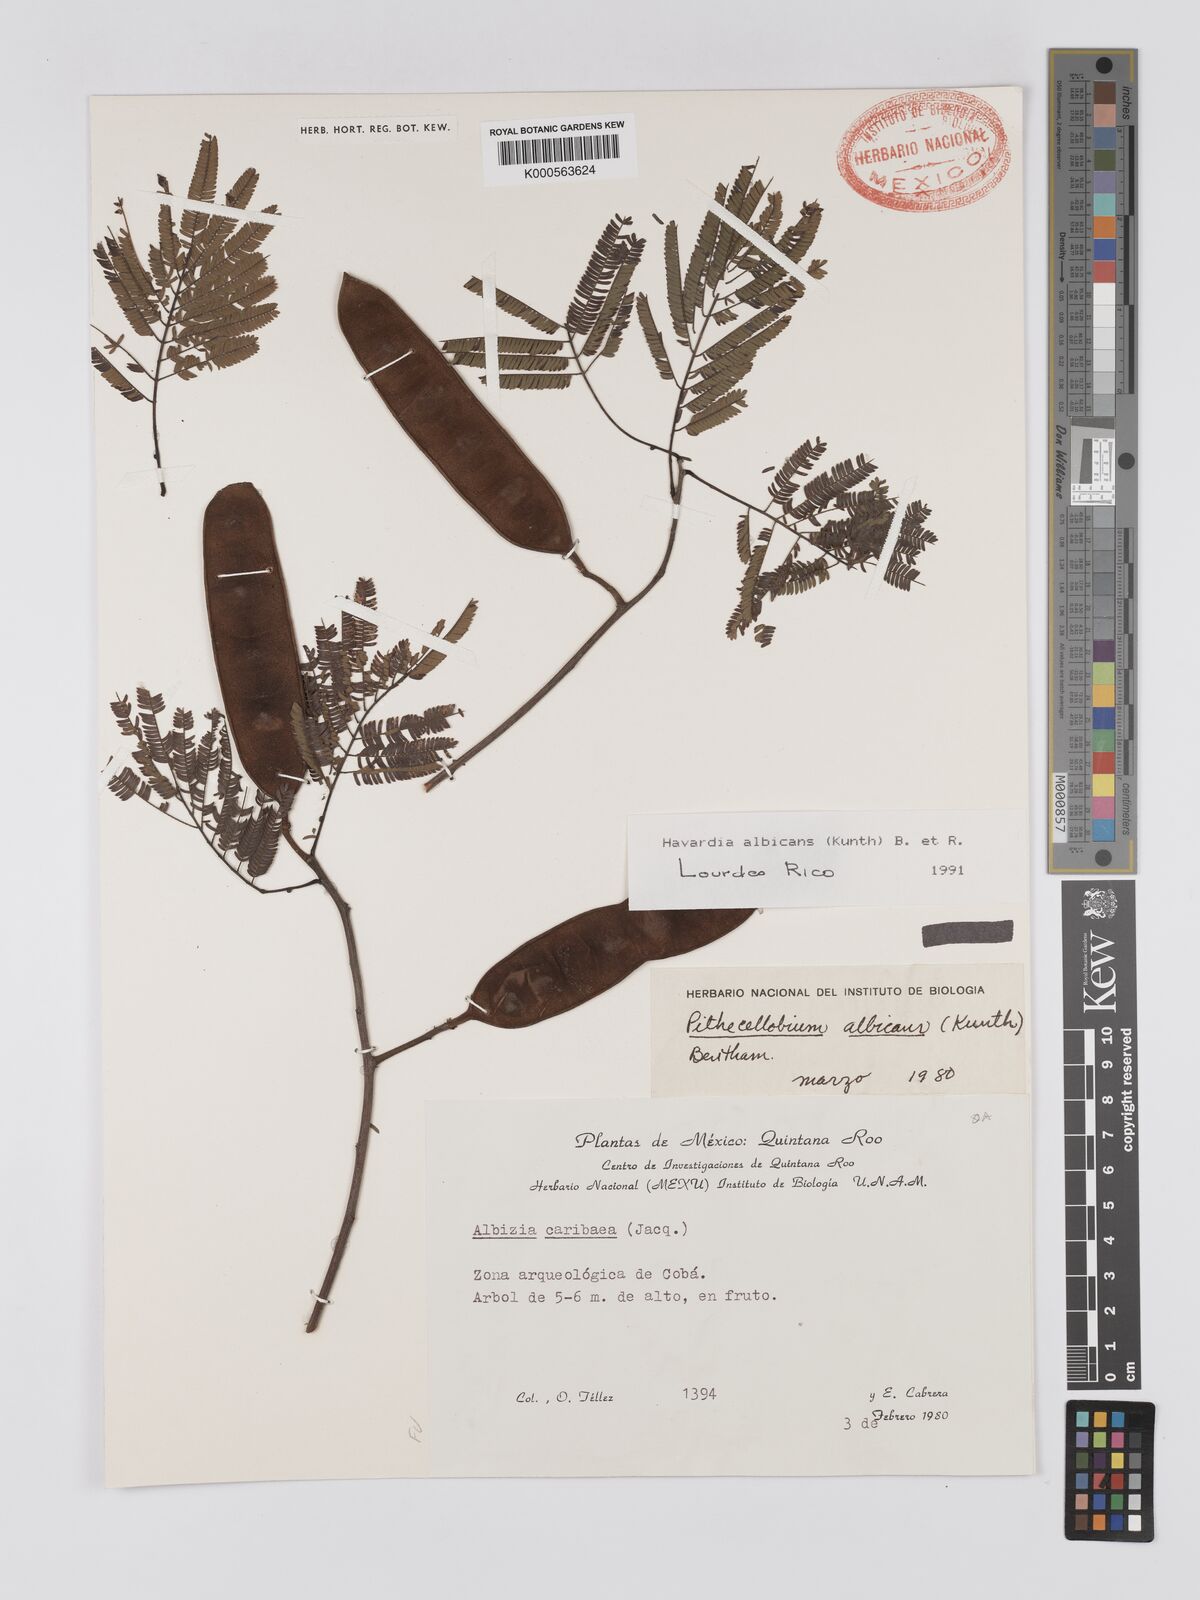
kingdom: Plantae
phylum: Tracheophyta
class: Magnoliopsida
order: Fabales
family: Fabaceae
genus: Havardia
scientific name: Havardia pallens
